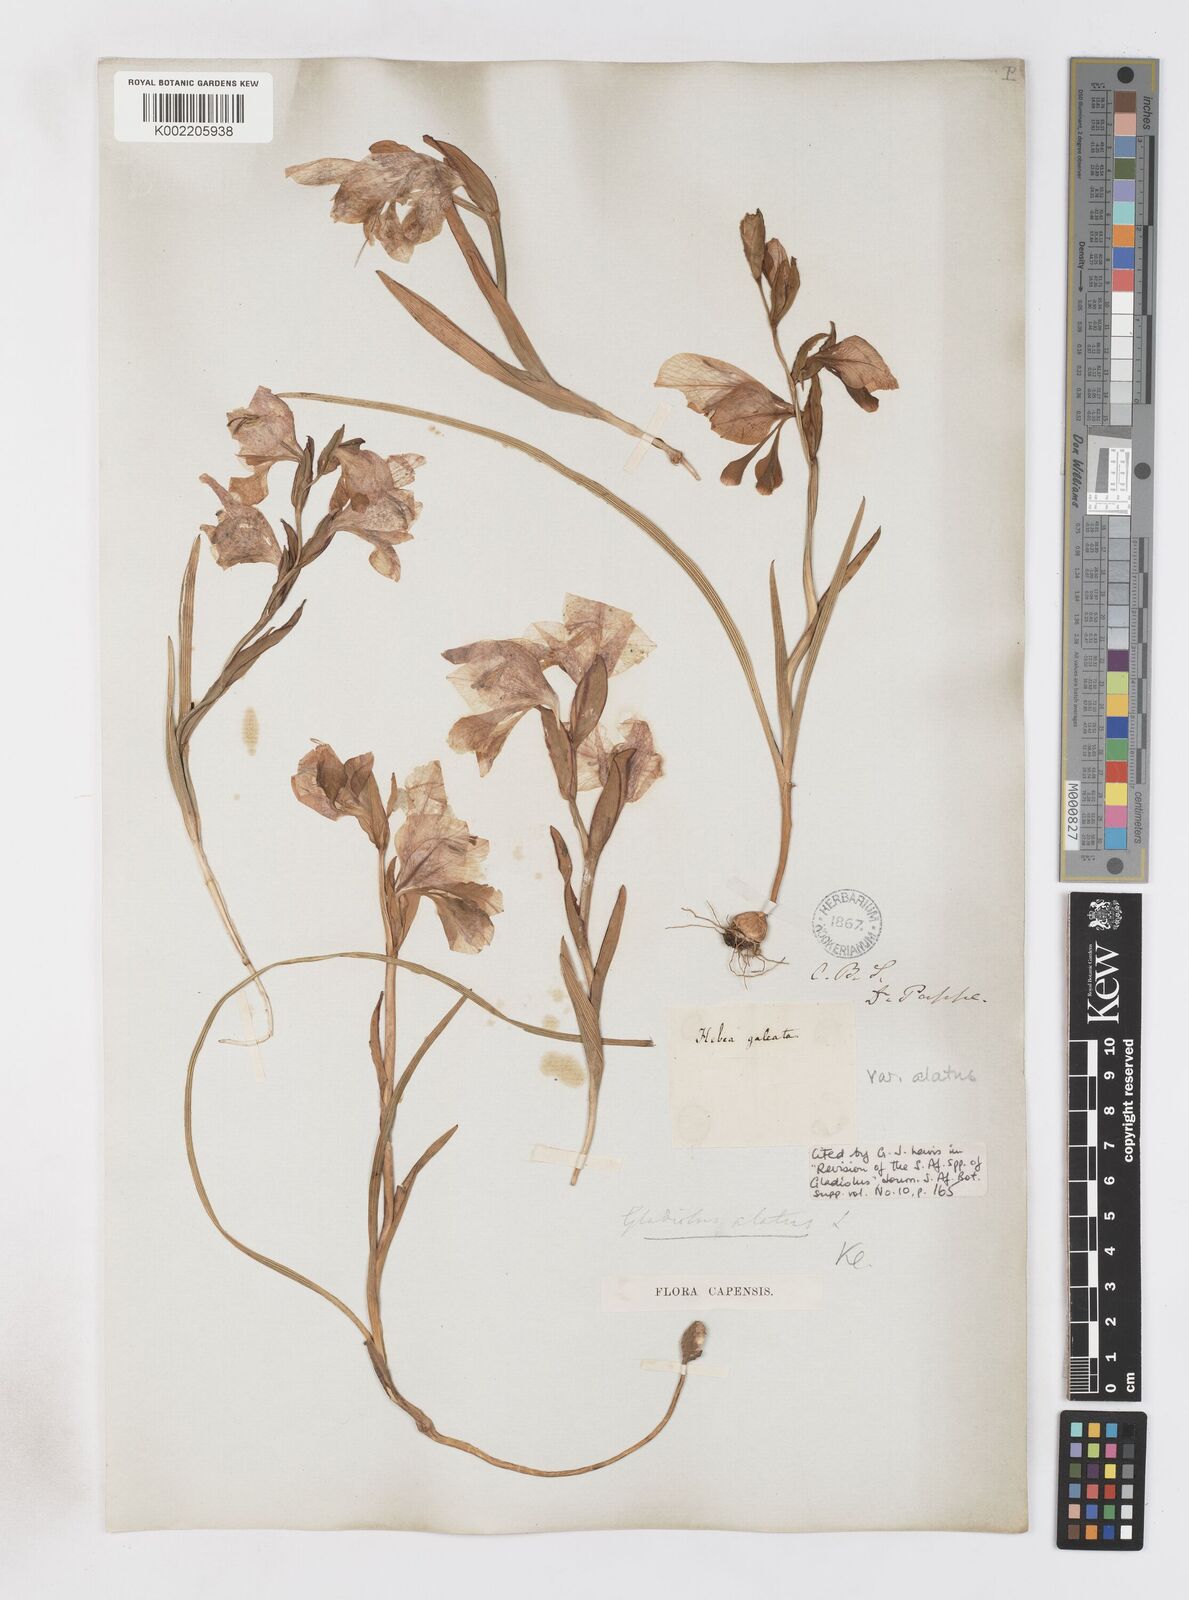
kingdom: Plantae
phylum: Tracheophyta
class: Liliopsida
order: Asparagales
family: Iridaceae
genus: Gladiolus
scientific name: Gladiolus alatus
